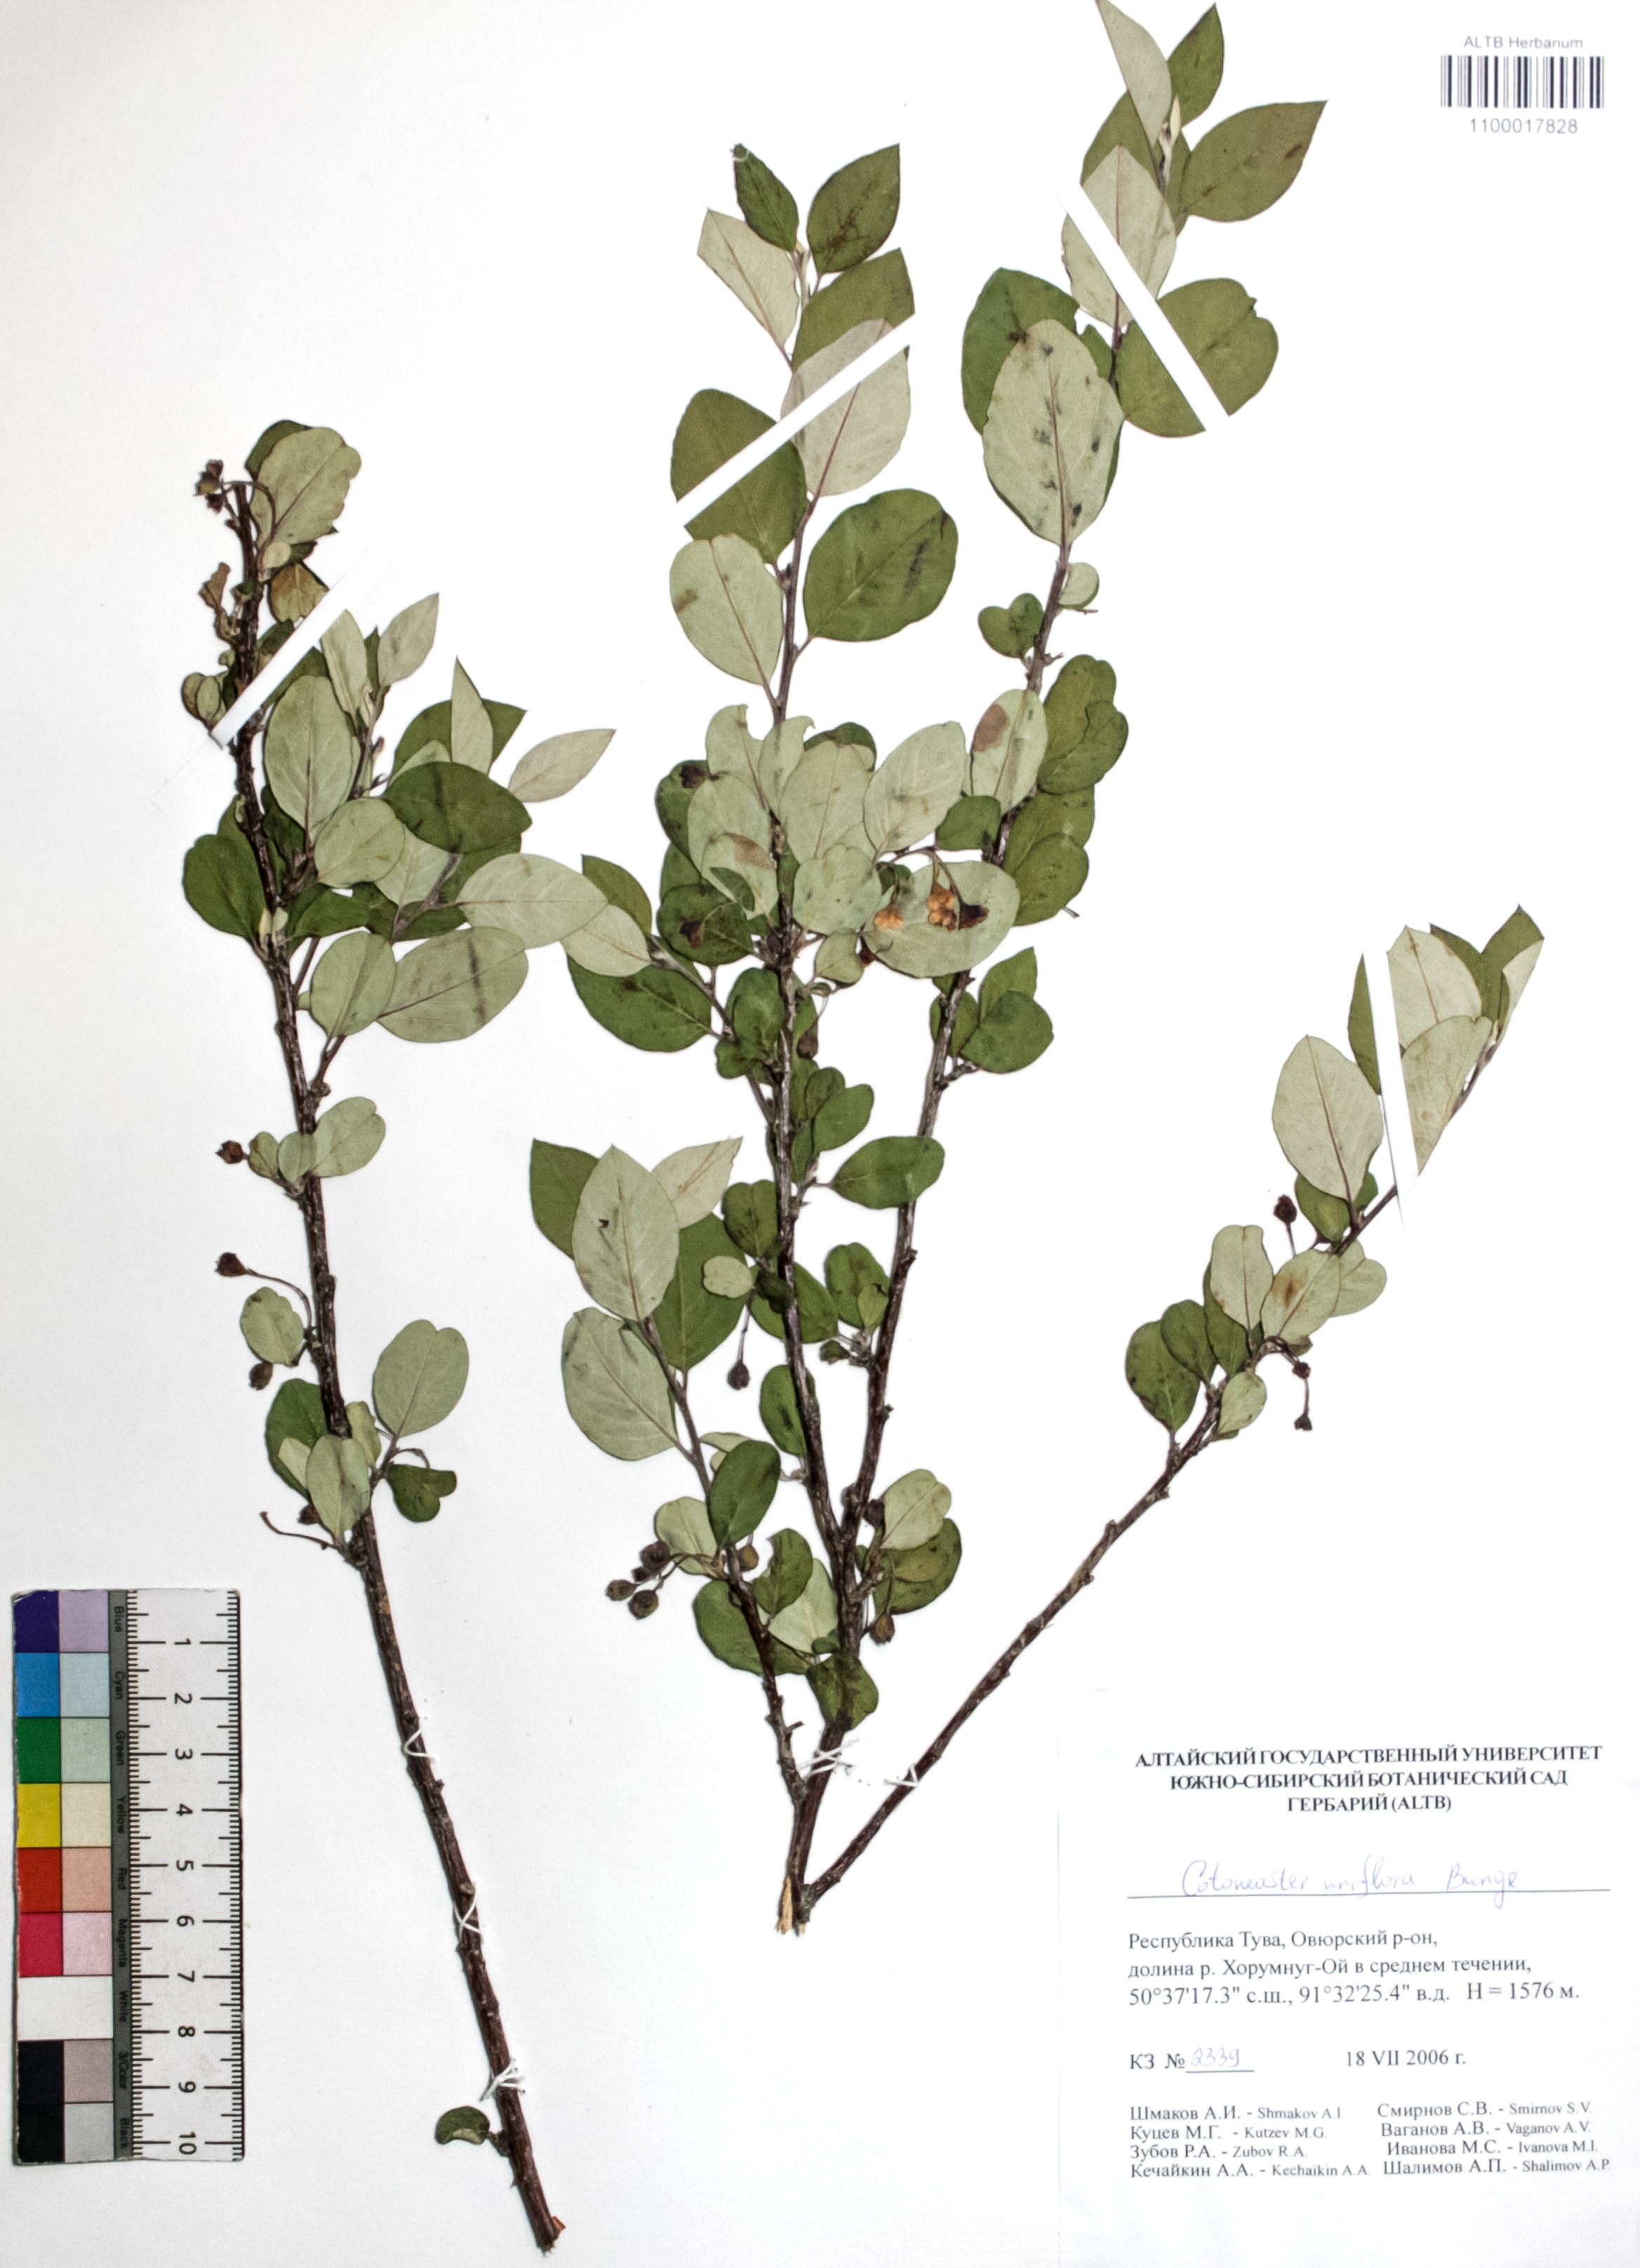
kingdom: Plantae
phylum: Tracheophyta
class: Magnoliopsida
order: Rosales
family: Rosaceae
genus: Cotoneaster
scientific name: Cotoneaster uniflorus
